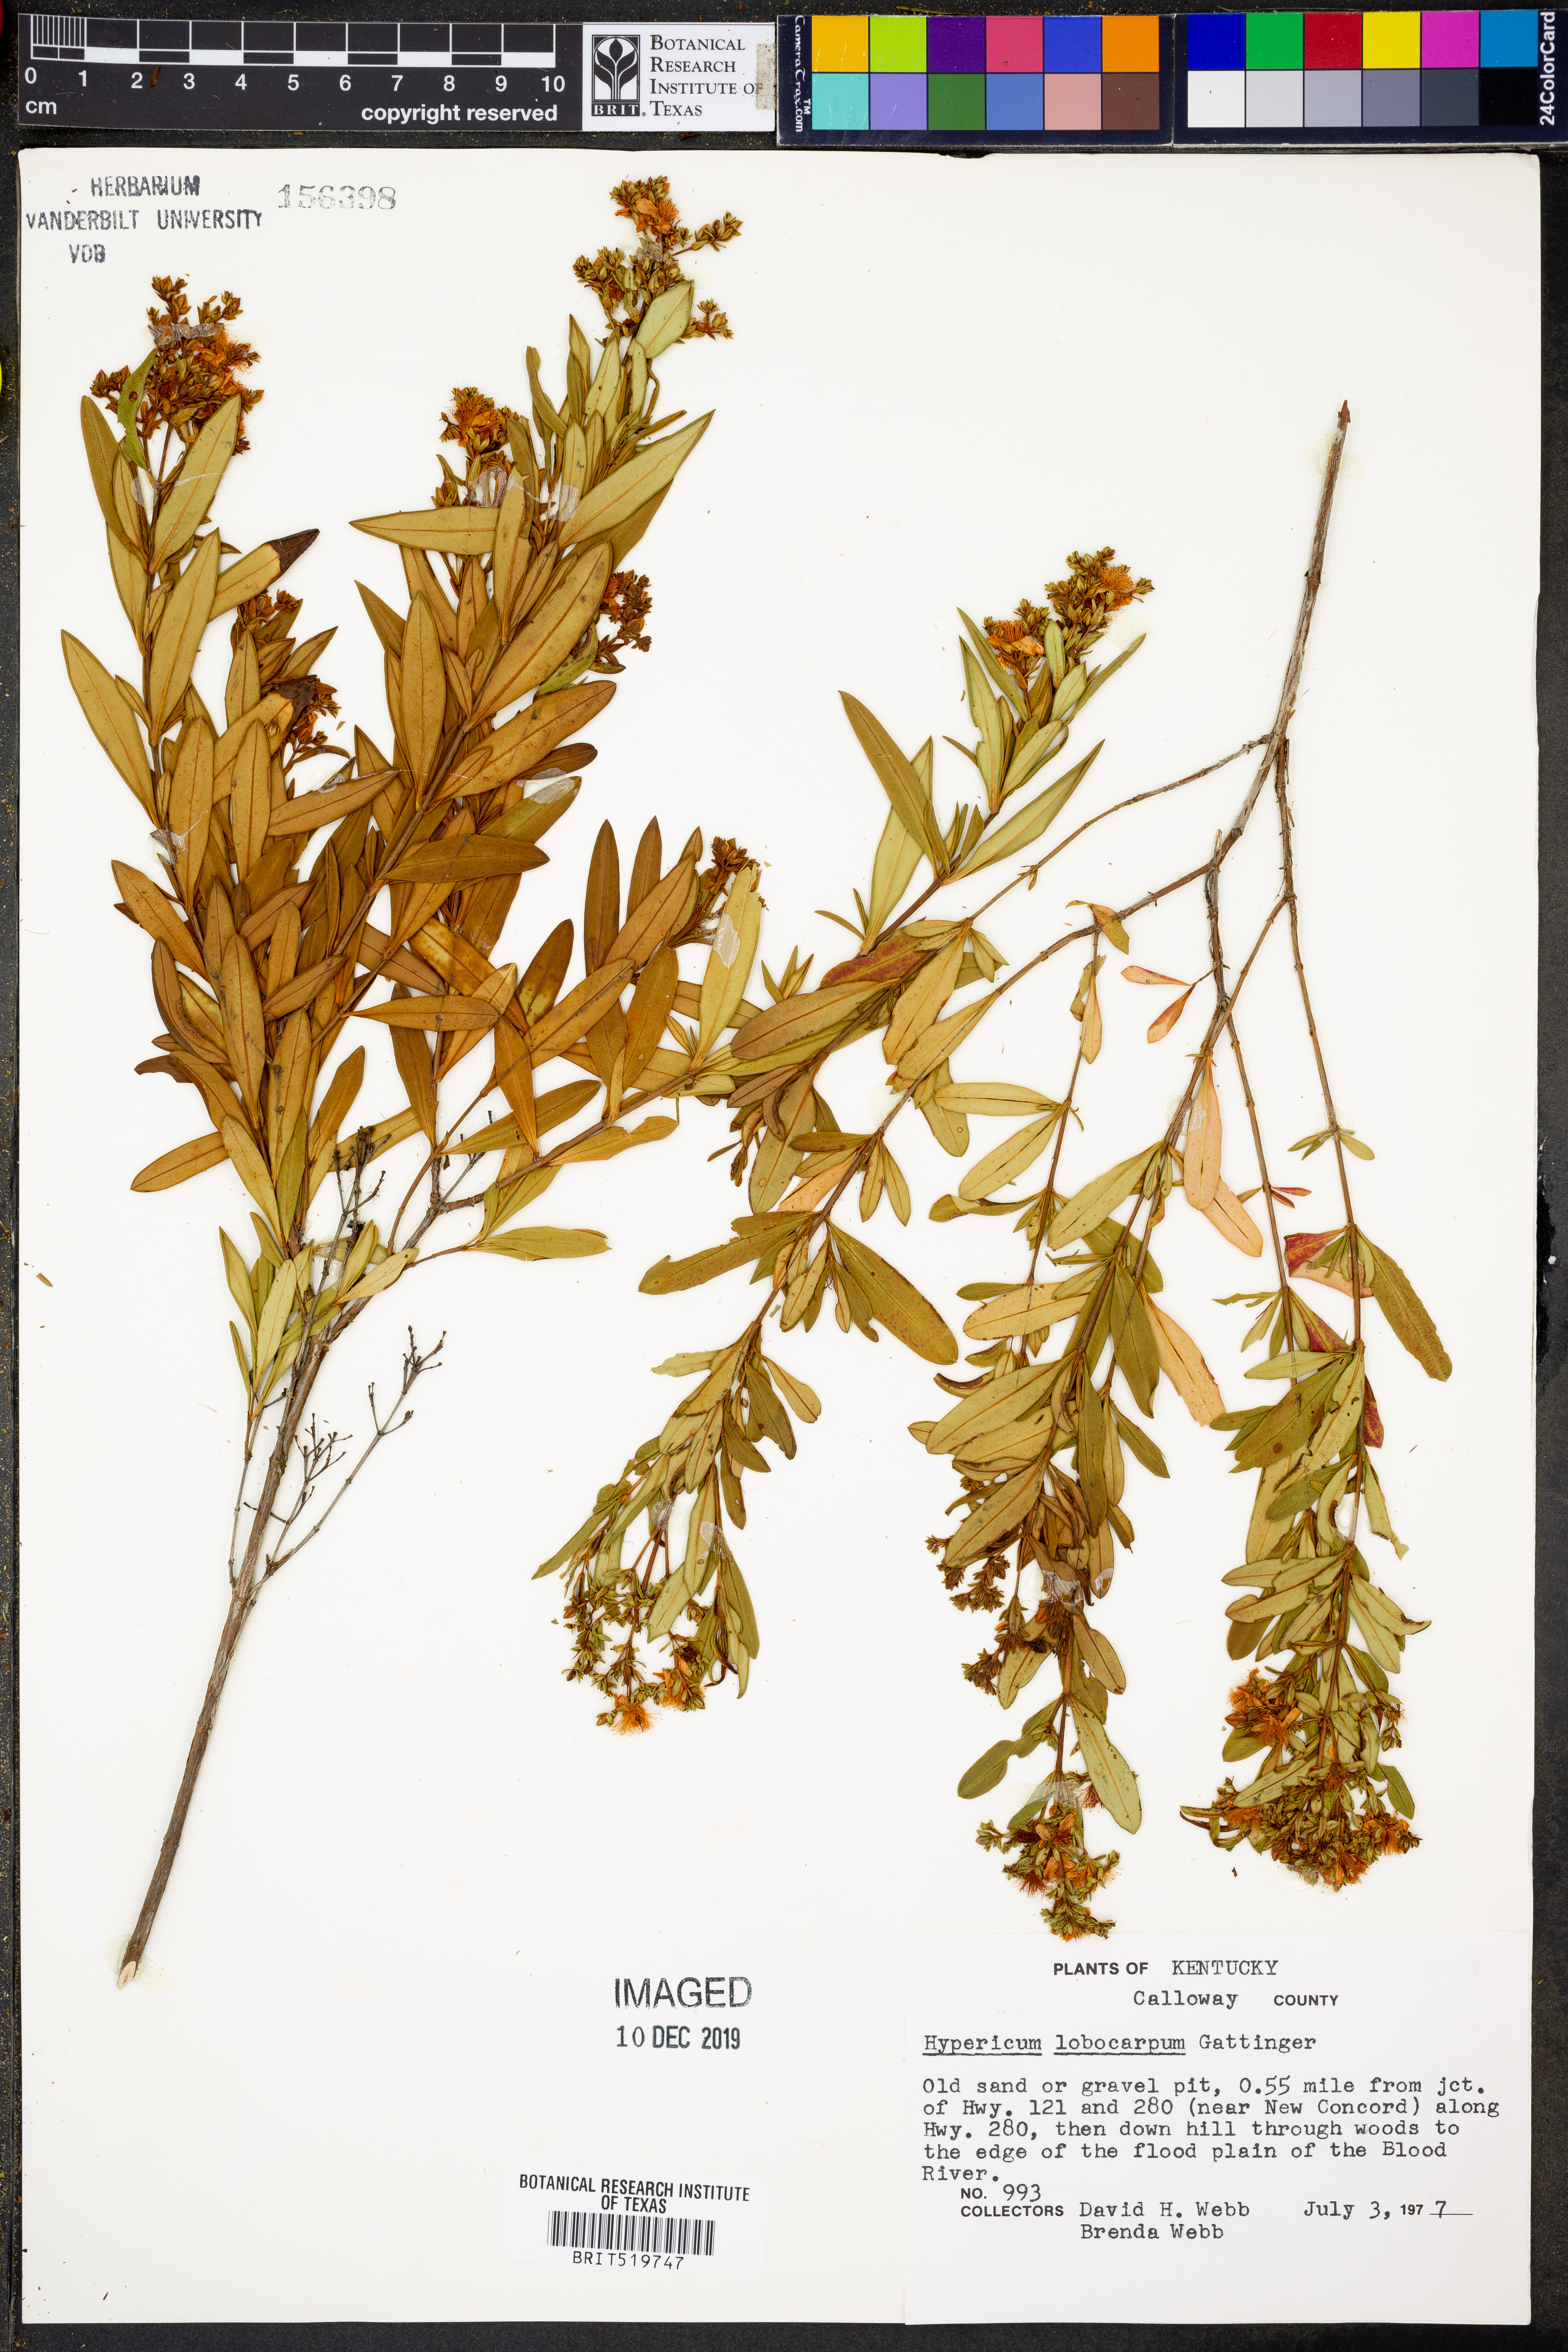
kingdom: Plantae
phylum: Tracheophyta
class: Magnoliopsida
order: Malpighiales
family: Hypericaceae
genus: Hypericum
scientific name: Hypericum lobocarpum
